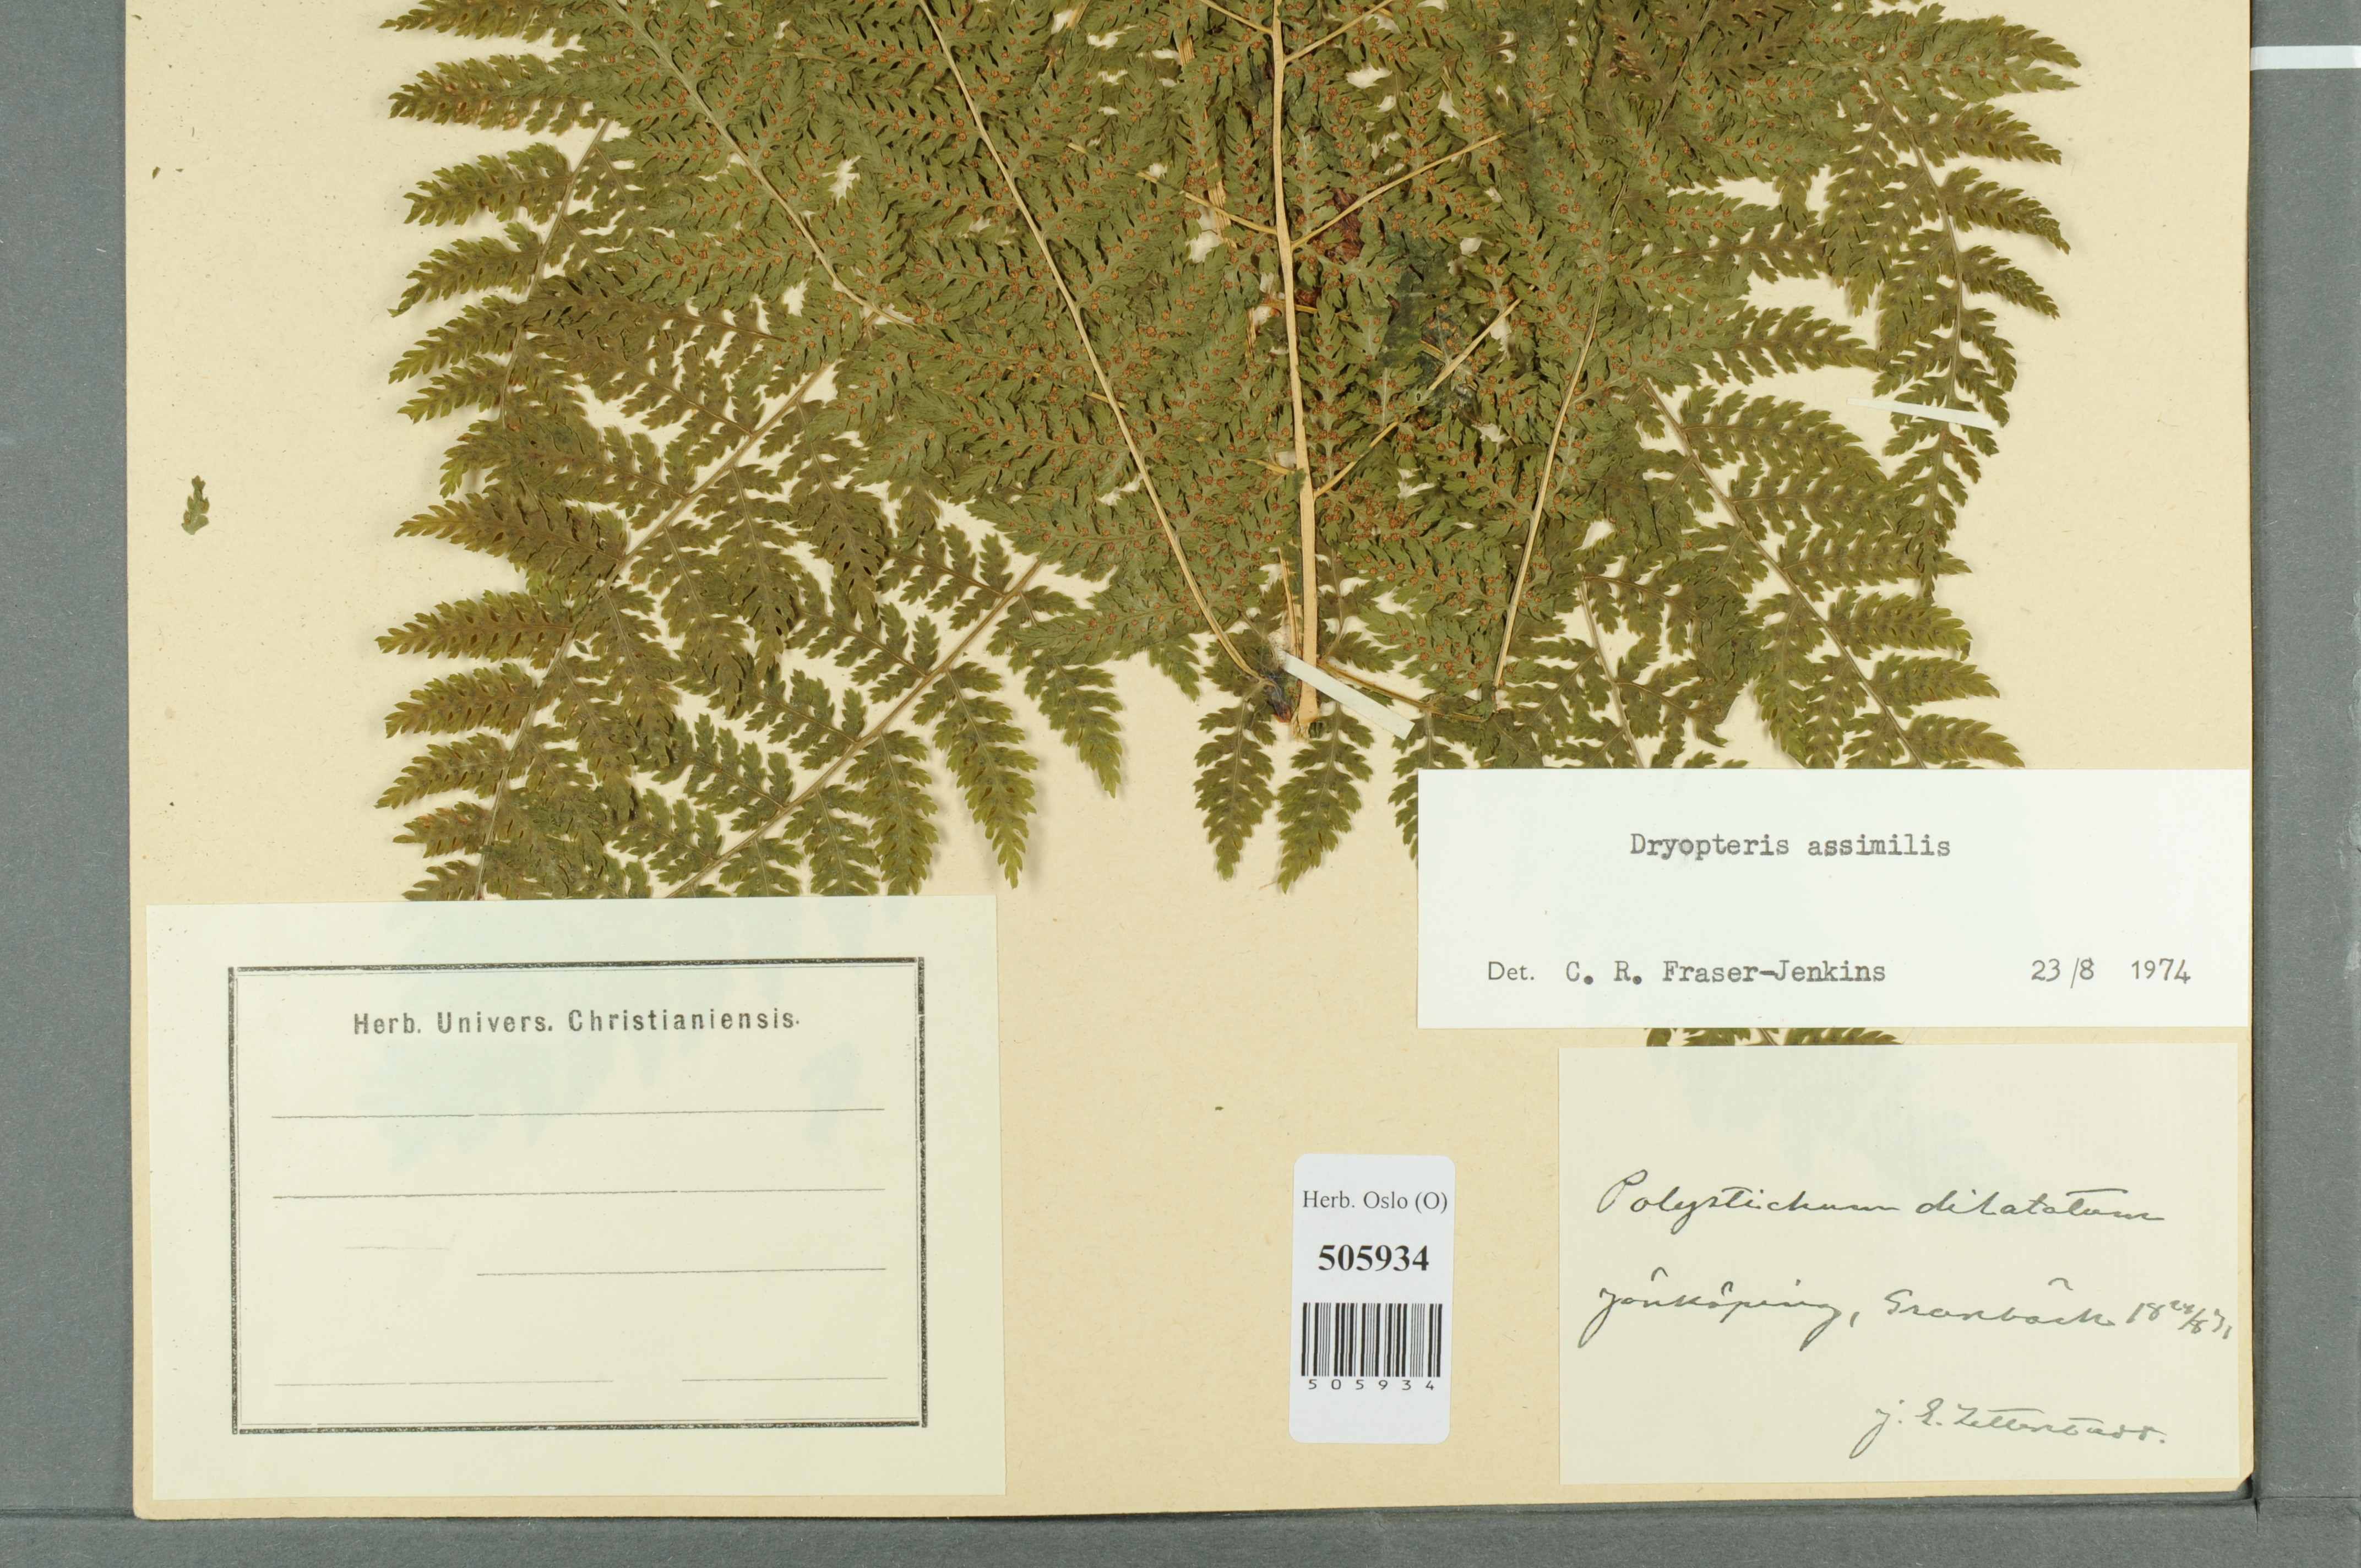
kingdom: Plantae
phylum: Tracheophyta
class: Polypodiopsida
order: Polypodiales
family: Dryopteridaceae
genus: Dryopteris
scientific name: Dryopteris expansa
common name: Northern buckler fern
